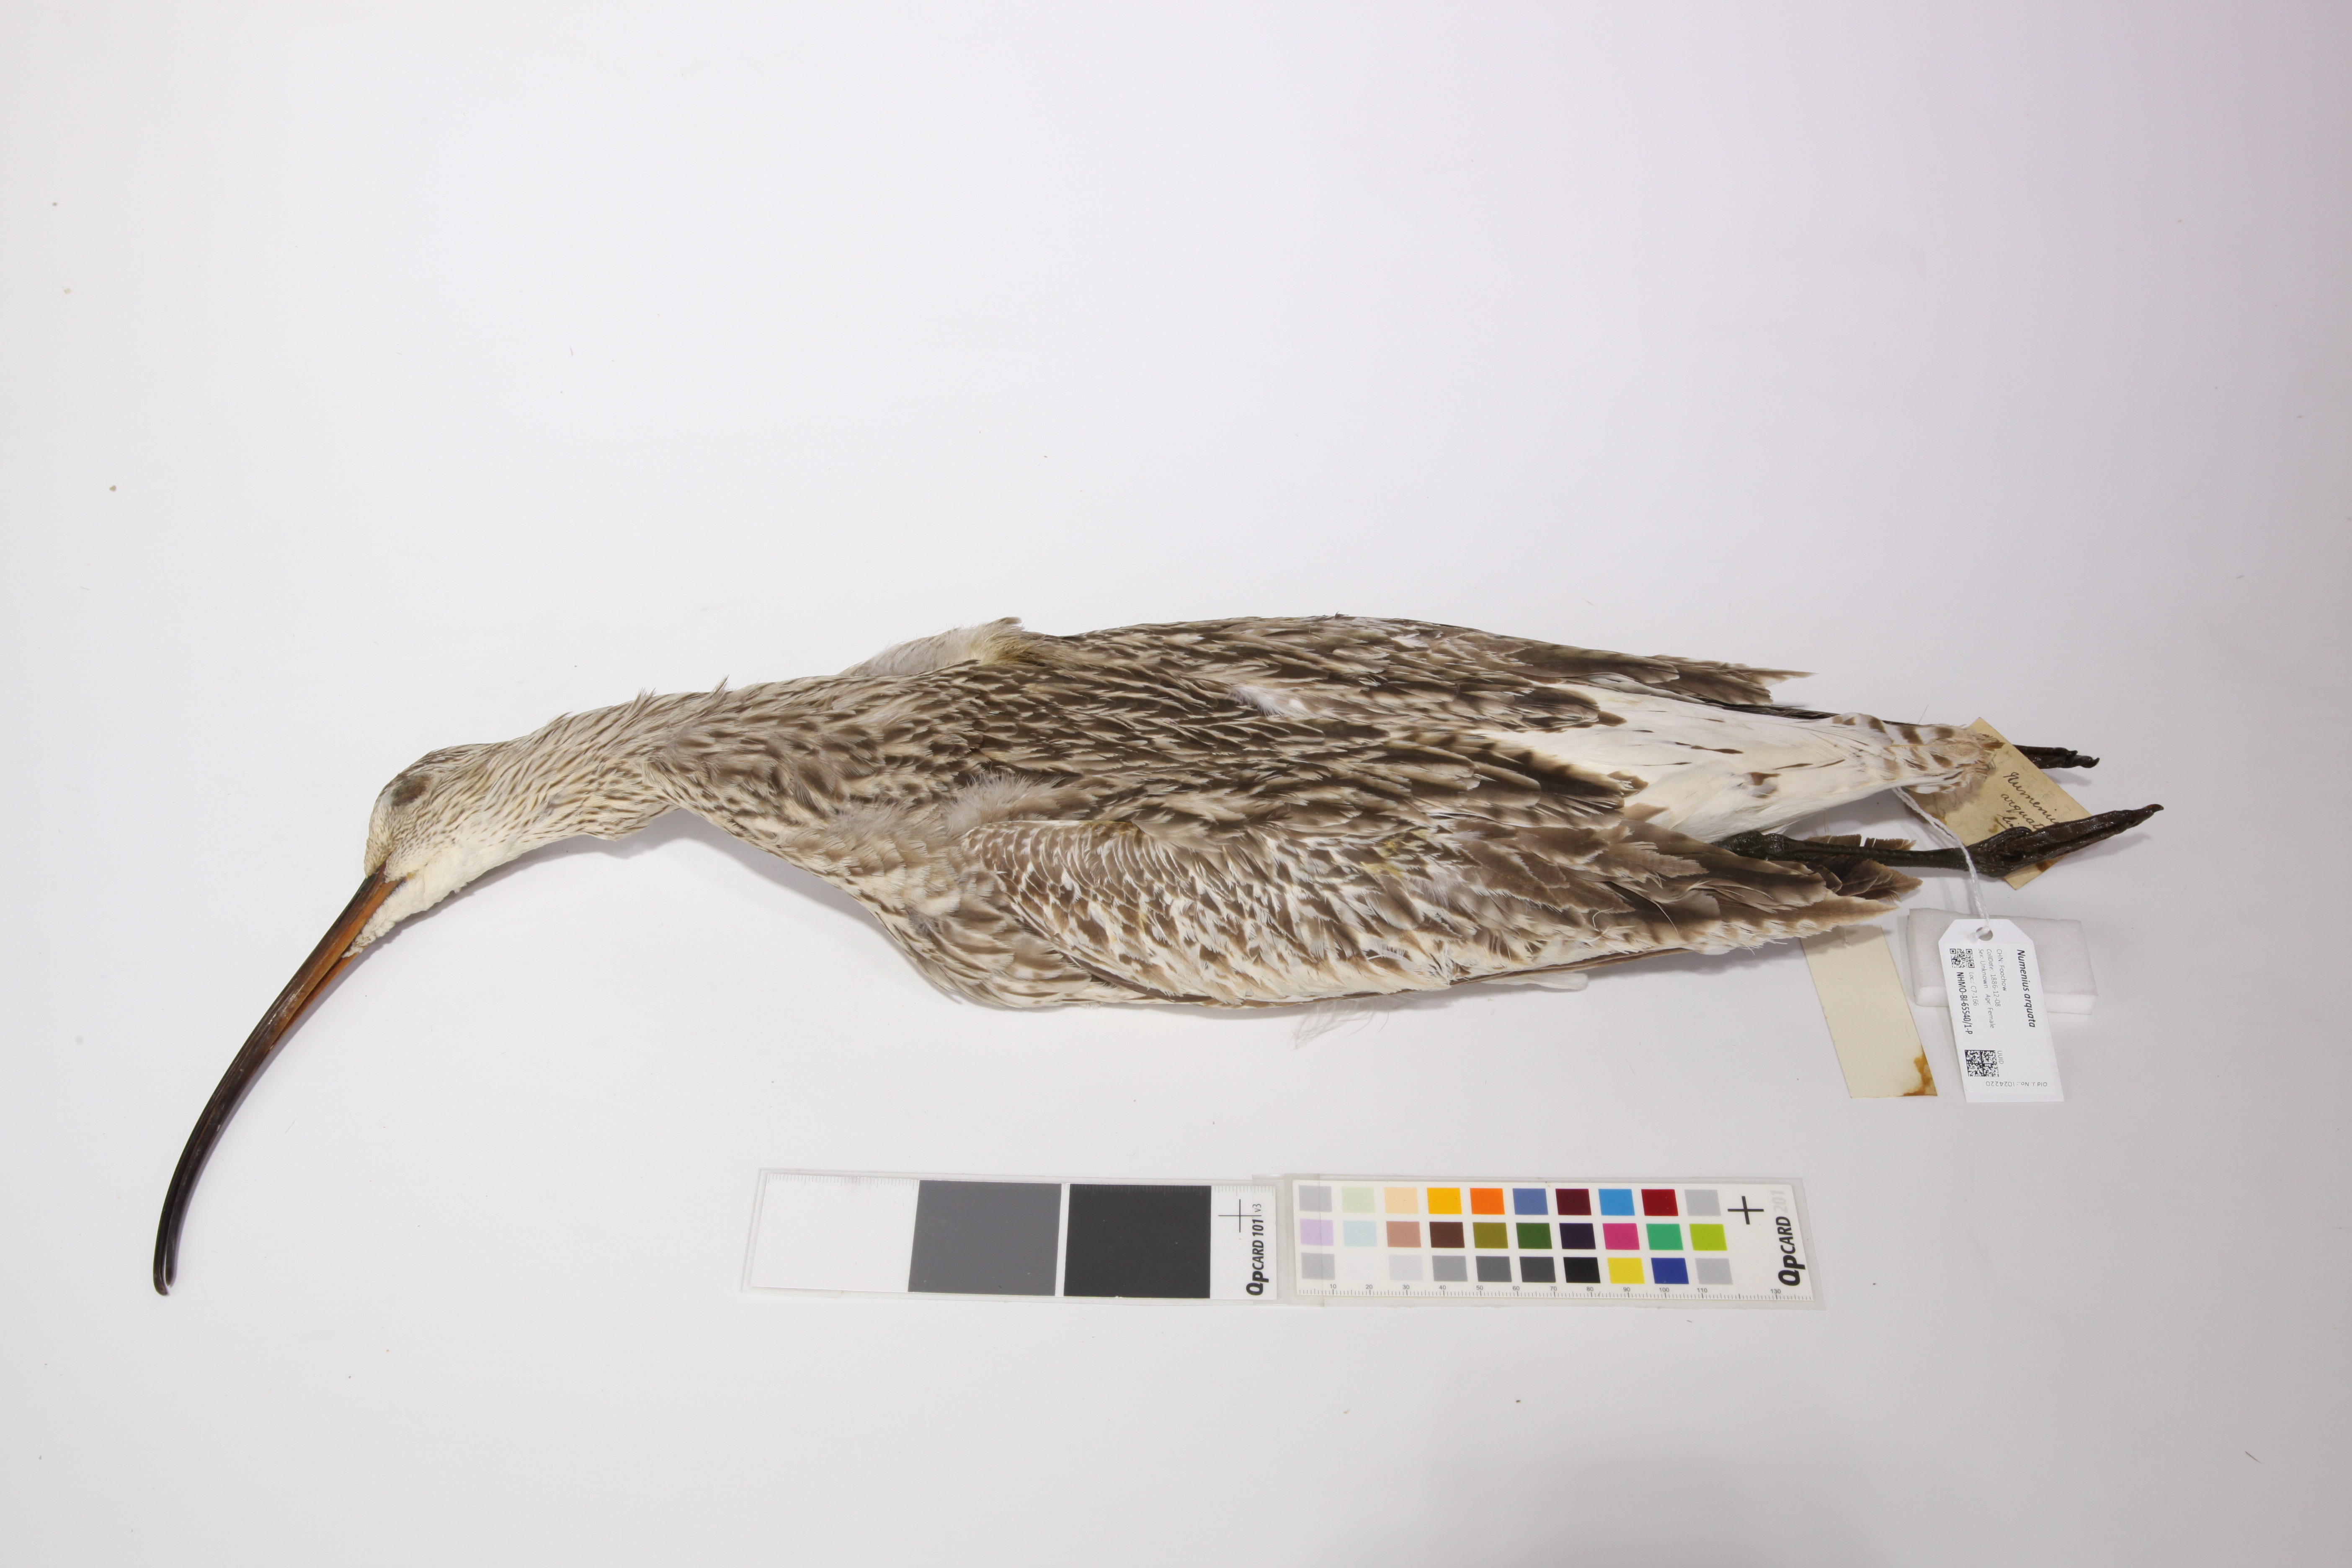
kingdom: Animalia
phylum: Chordata
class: Aves
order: Charadriiformes
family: Scolopacidae
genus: Numenius
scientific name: Numenius arquata
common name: Eurasian curlew
